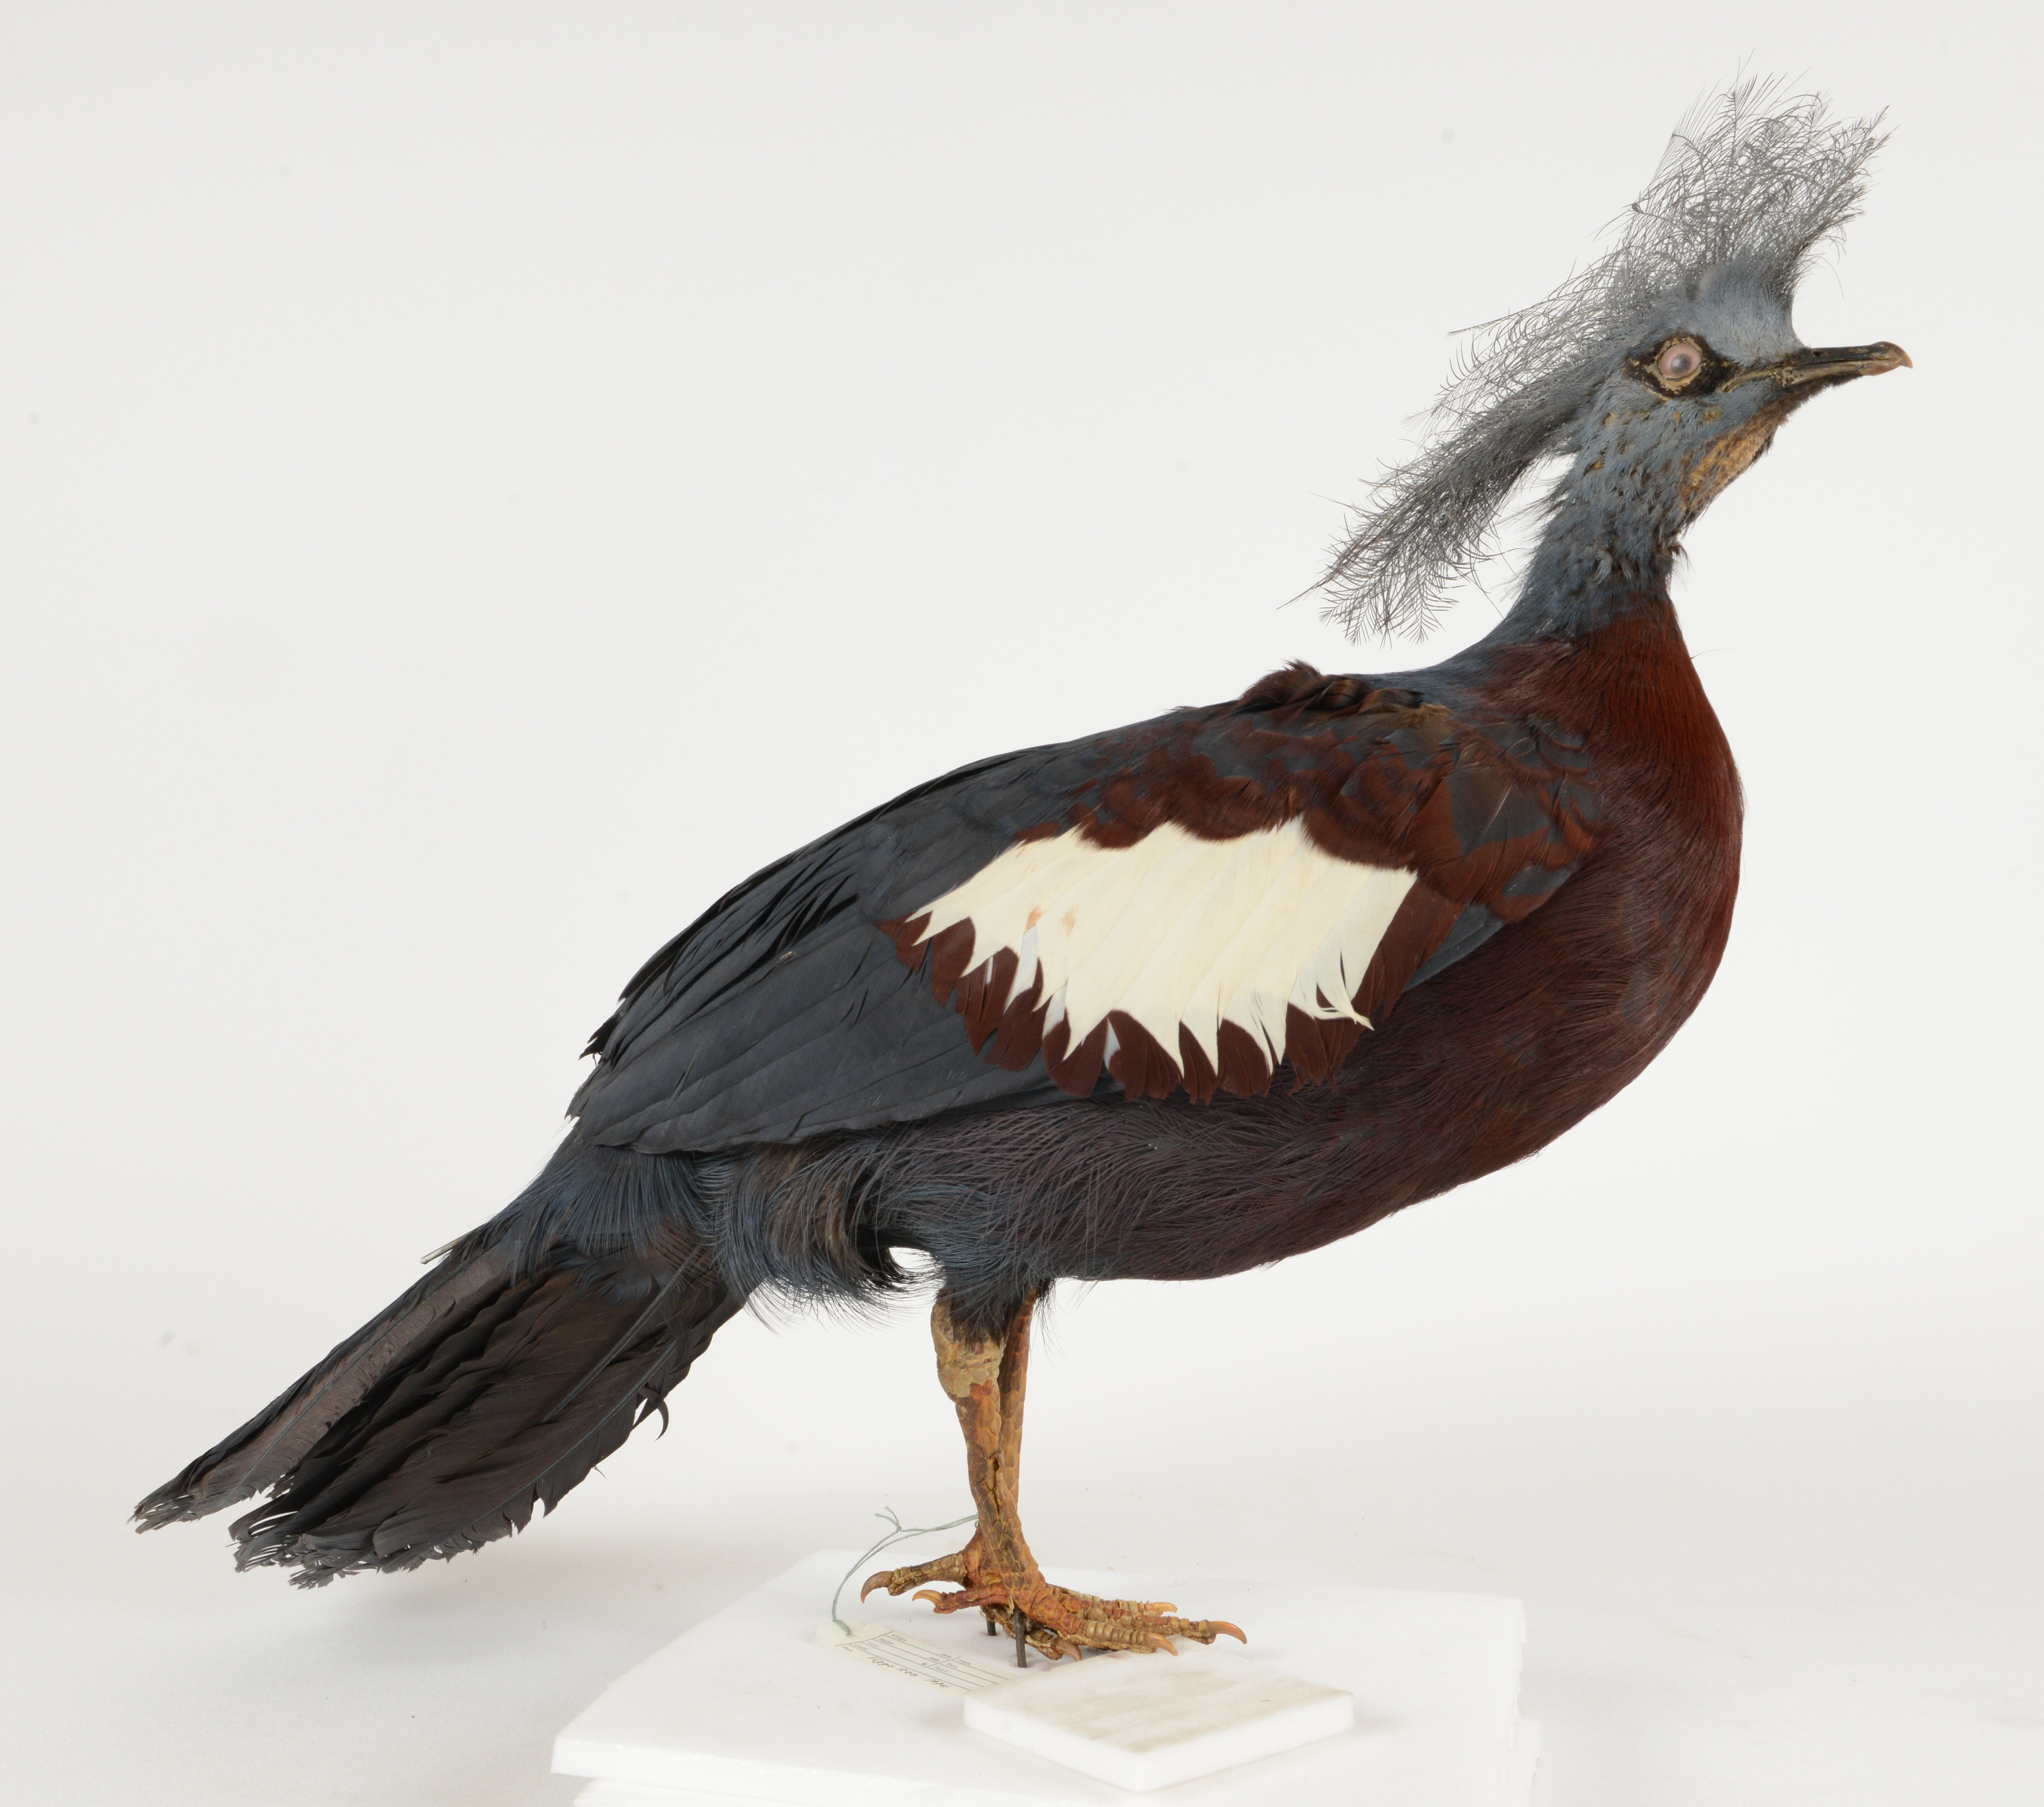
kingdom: Animalia
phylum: Chordata
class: Aves
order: Columbiformes
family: Columbidae
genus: Goura
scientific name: Goura scheepmakeri
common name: Southern crowned-pigeon
